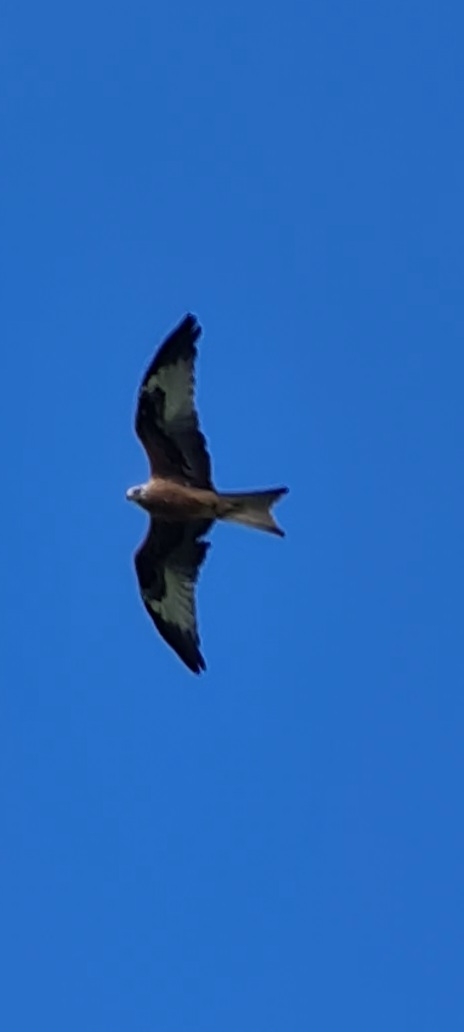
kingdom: Animalia
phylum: Chordata
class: Aves
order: Accipitriformes
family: Accipitridae
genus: Milvus
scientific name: Milvus milvus
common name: Rød glente
